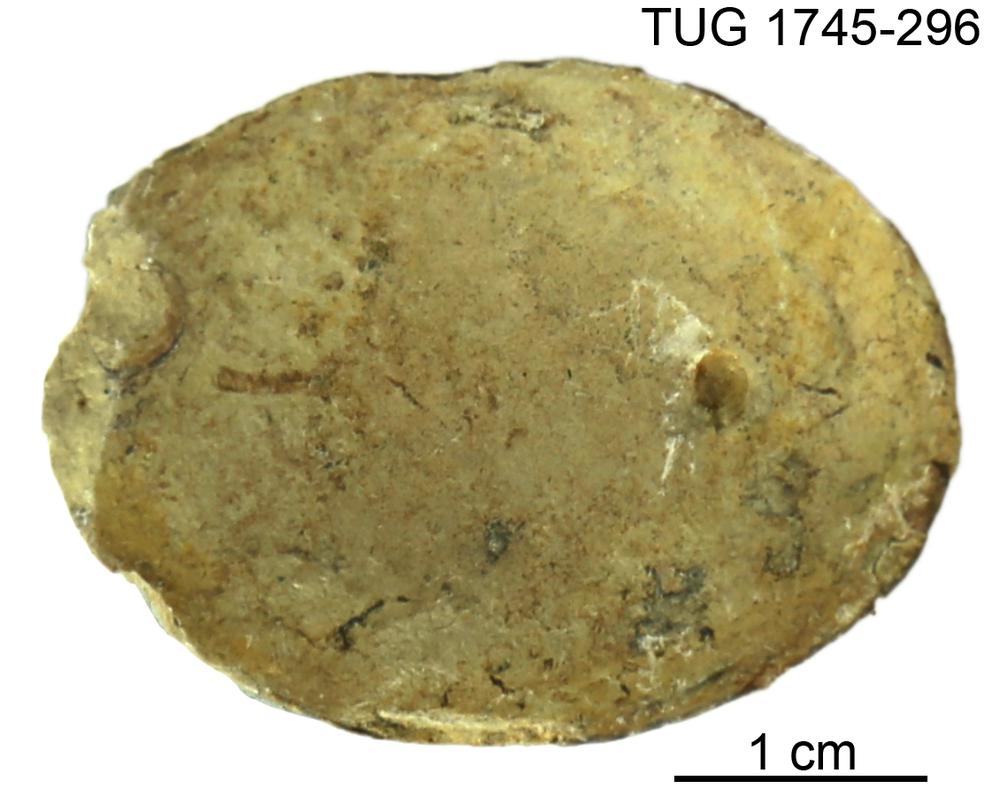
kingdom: Animalia
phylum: Mollusca
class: Cephalopoda
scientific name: Cephalopoda
